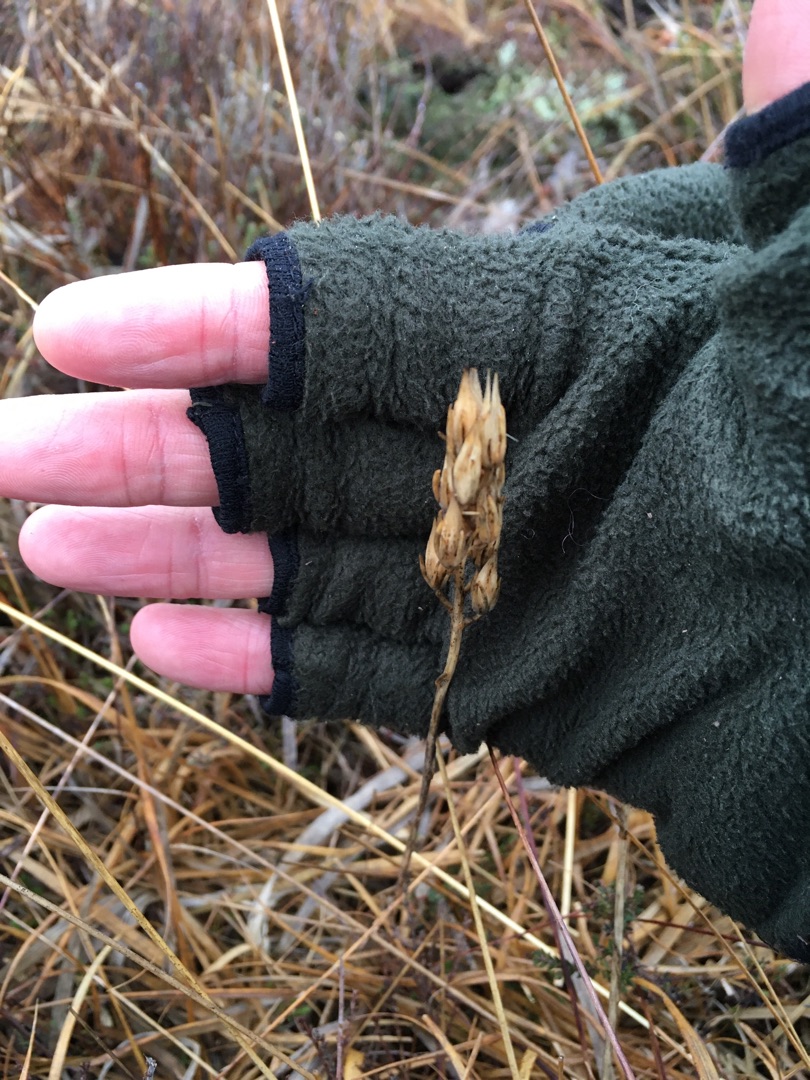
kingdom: Plantae
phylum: Tracheophyta
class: Liliopsida
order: Dioscoreales
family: Nartheciaceae
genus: Narthecium
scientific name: Narthecium ossifragum
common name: Benbræk
